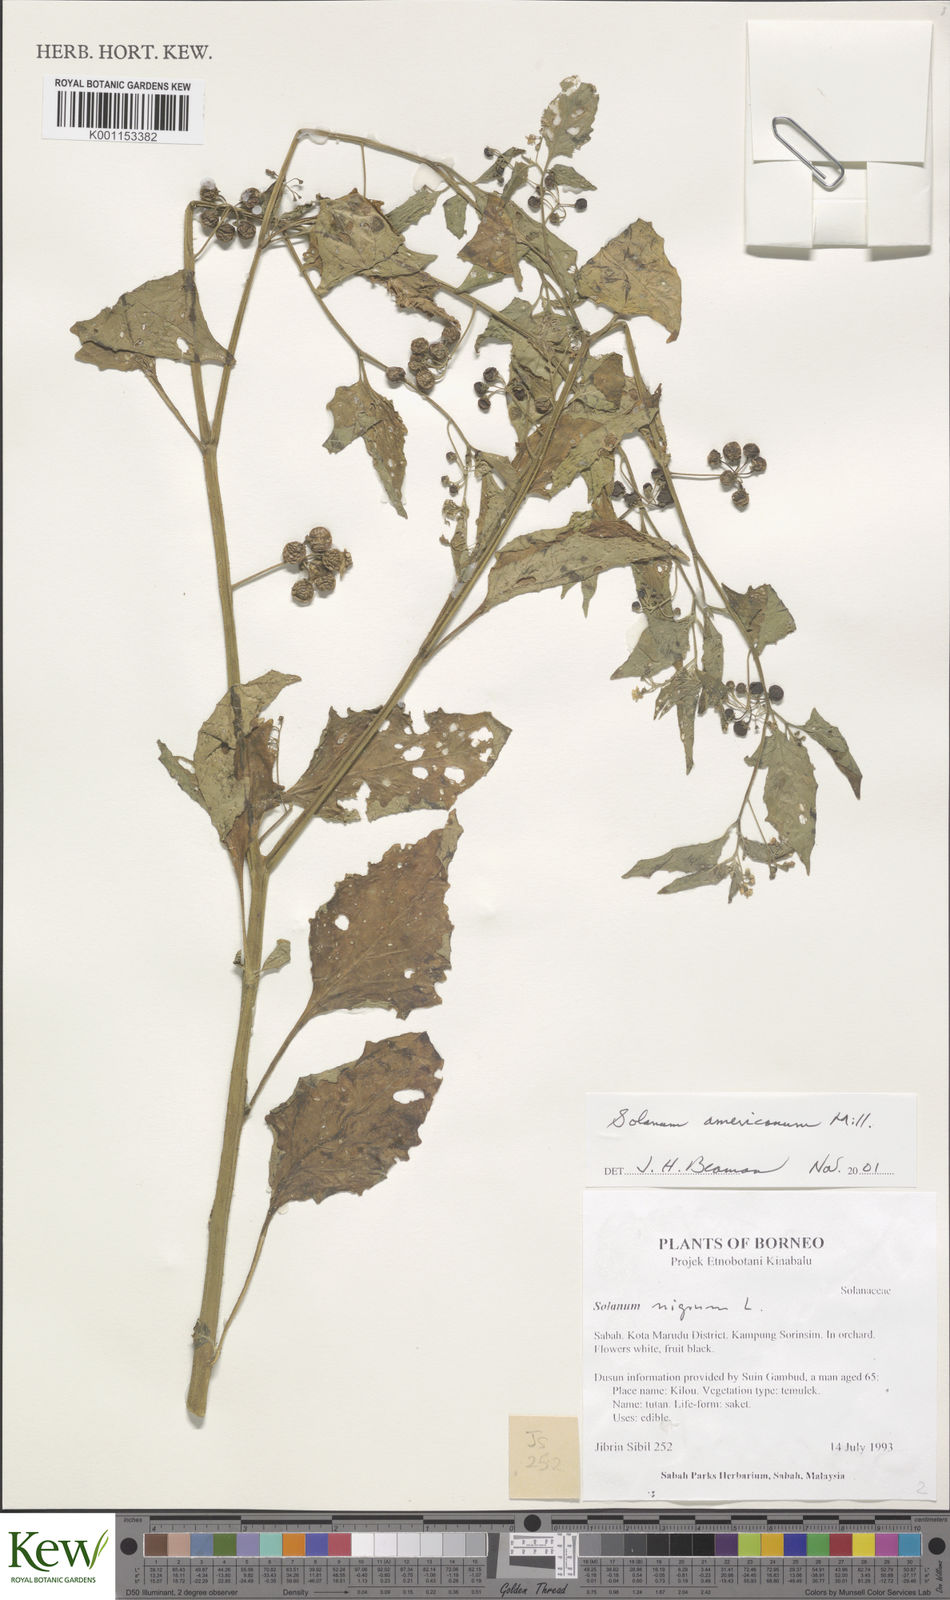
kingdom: Plantae
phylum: Tracheophyta
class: Magnoliopsida
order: Solanales
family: Solanaceae
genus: Solanum
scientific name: Solanum americanum
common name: American black nightshade
